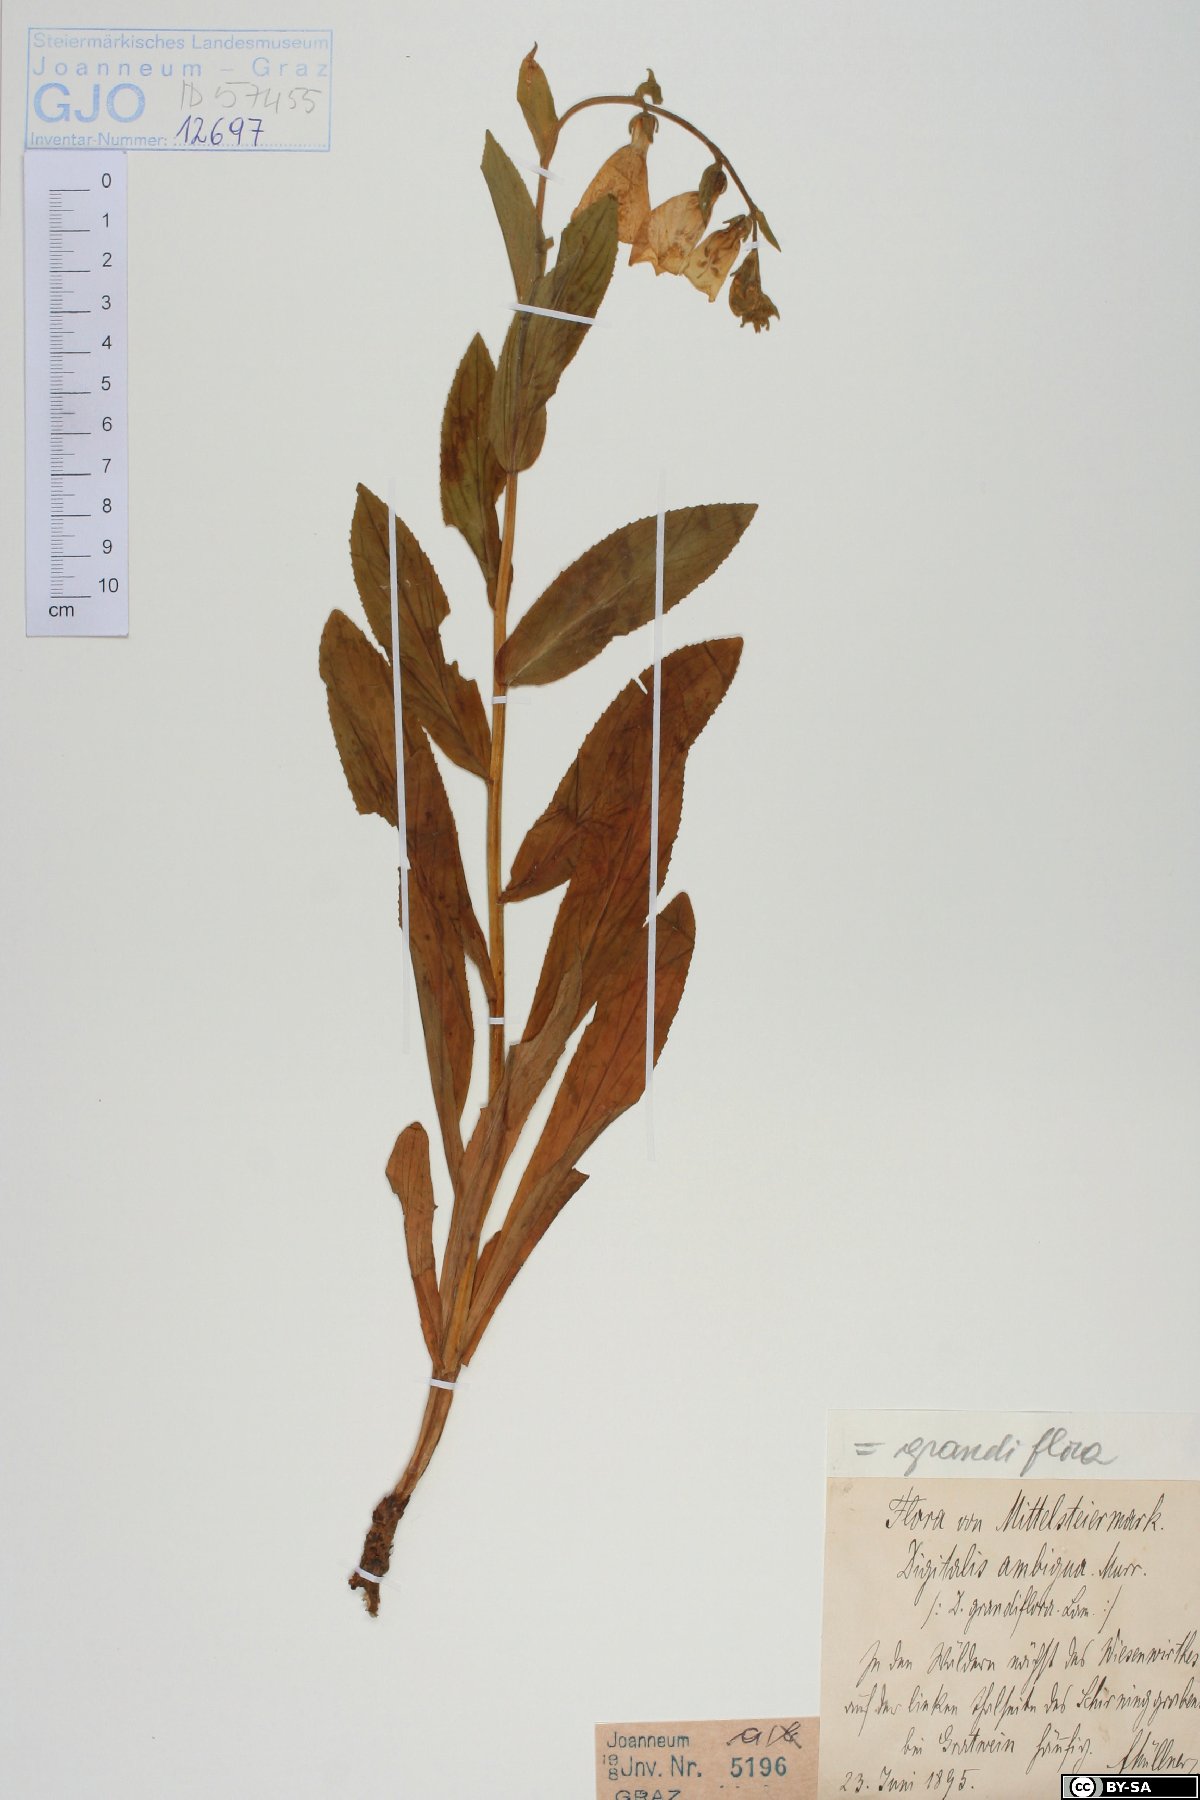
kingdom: Plantae
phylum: Tracheophyta
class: Magnoliopsida
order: Lamiales
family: Plantaginaceae
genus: Digitalis
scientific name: Digitalis grandiflora
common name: Yellow foxglove
